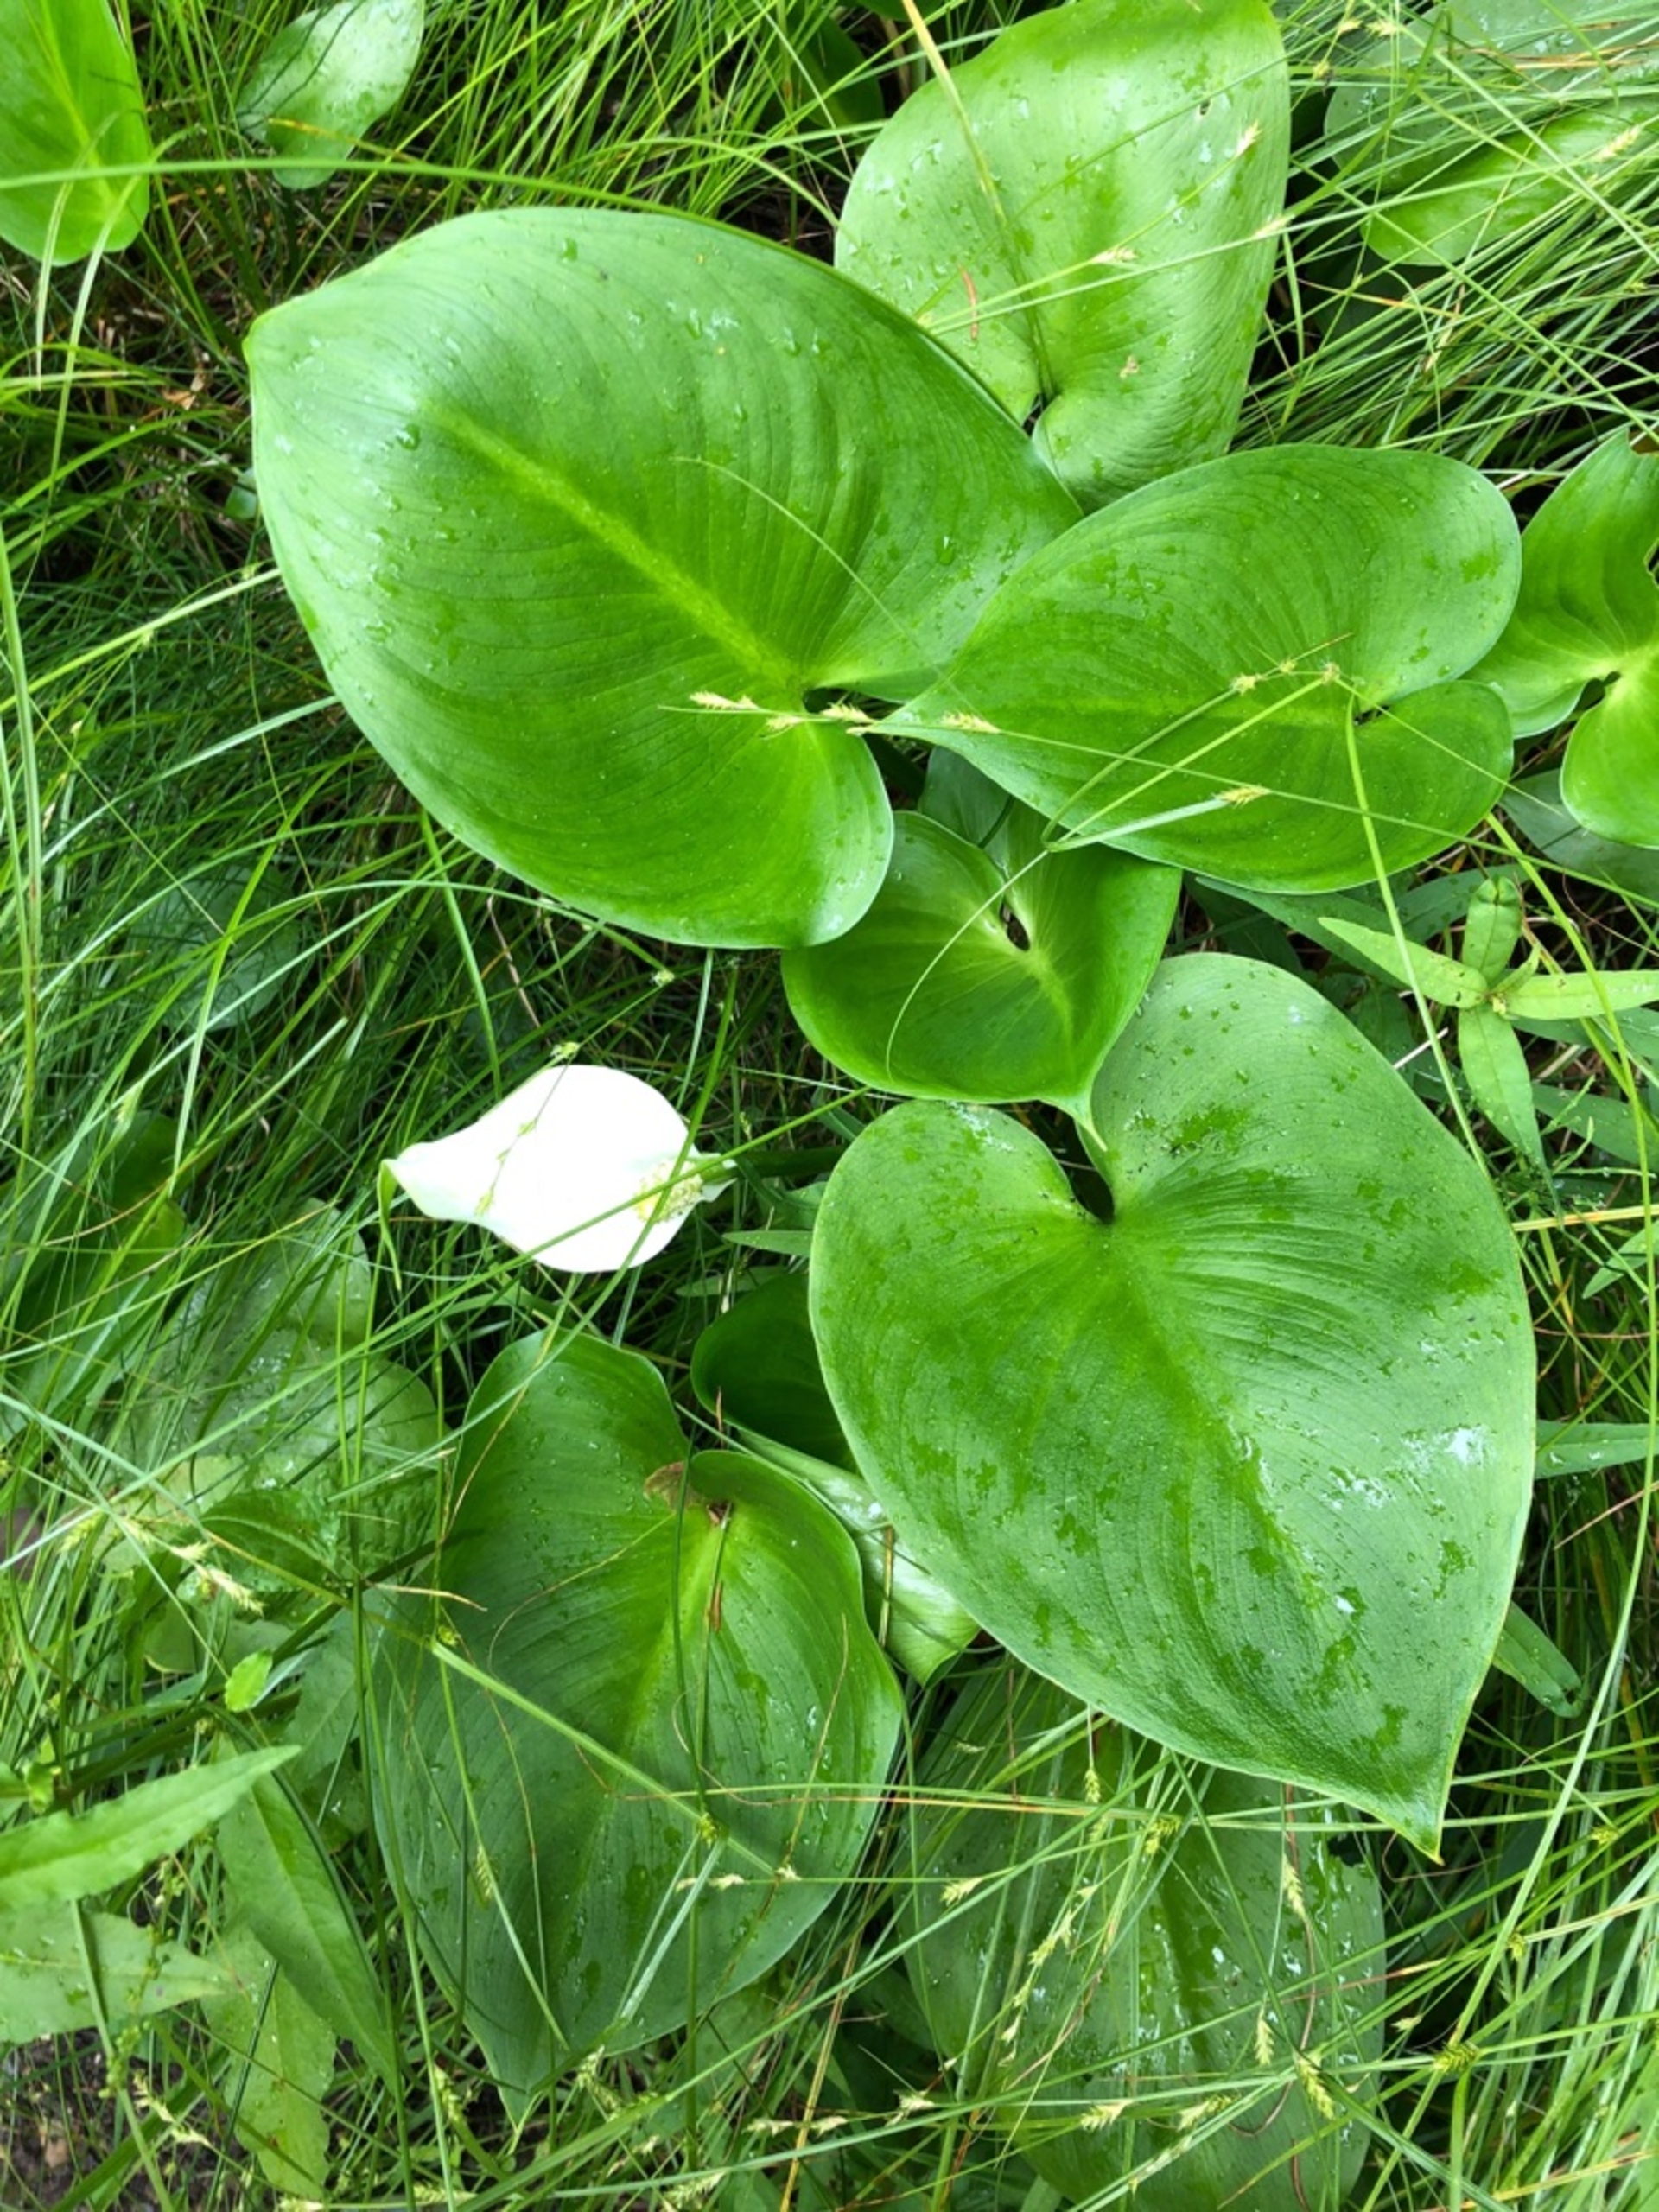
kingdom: Plantae
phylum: Tracheophyta
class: Liliopsida
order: Alismatales
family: Araceae
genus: Calla
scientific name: Calla palustris
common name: Kærmysse
